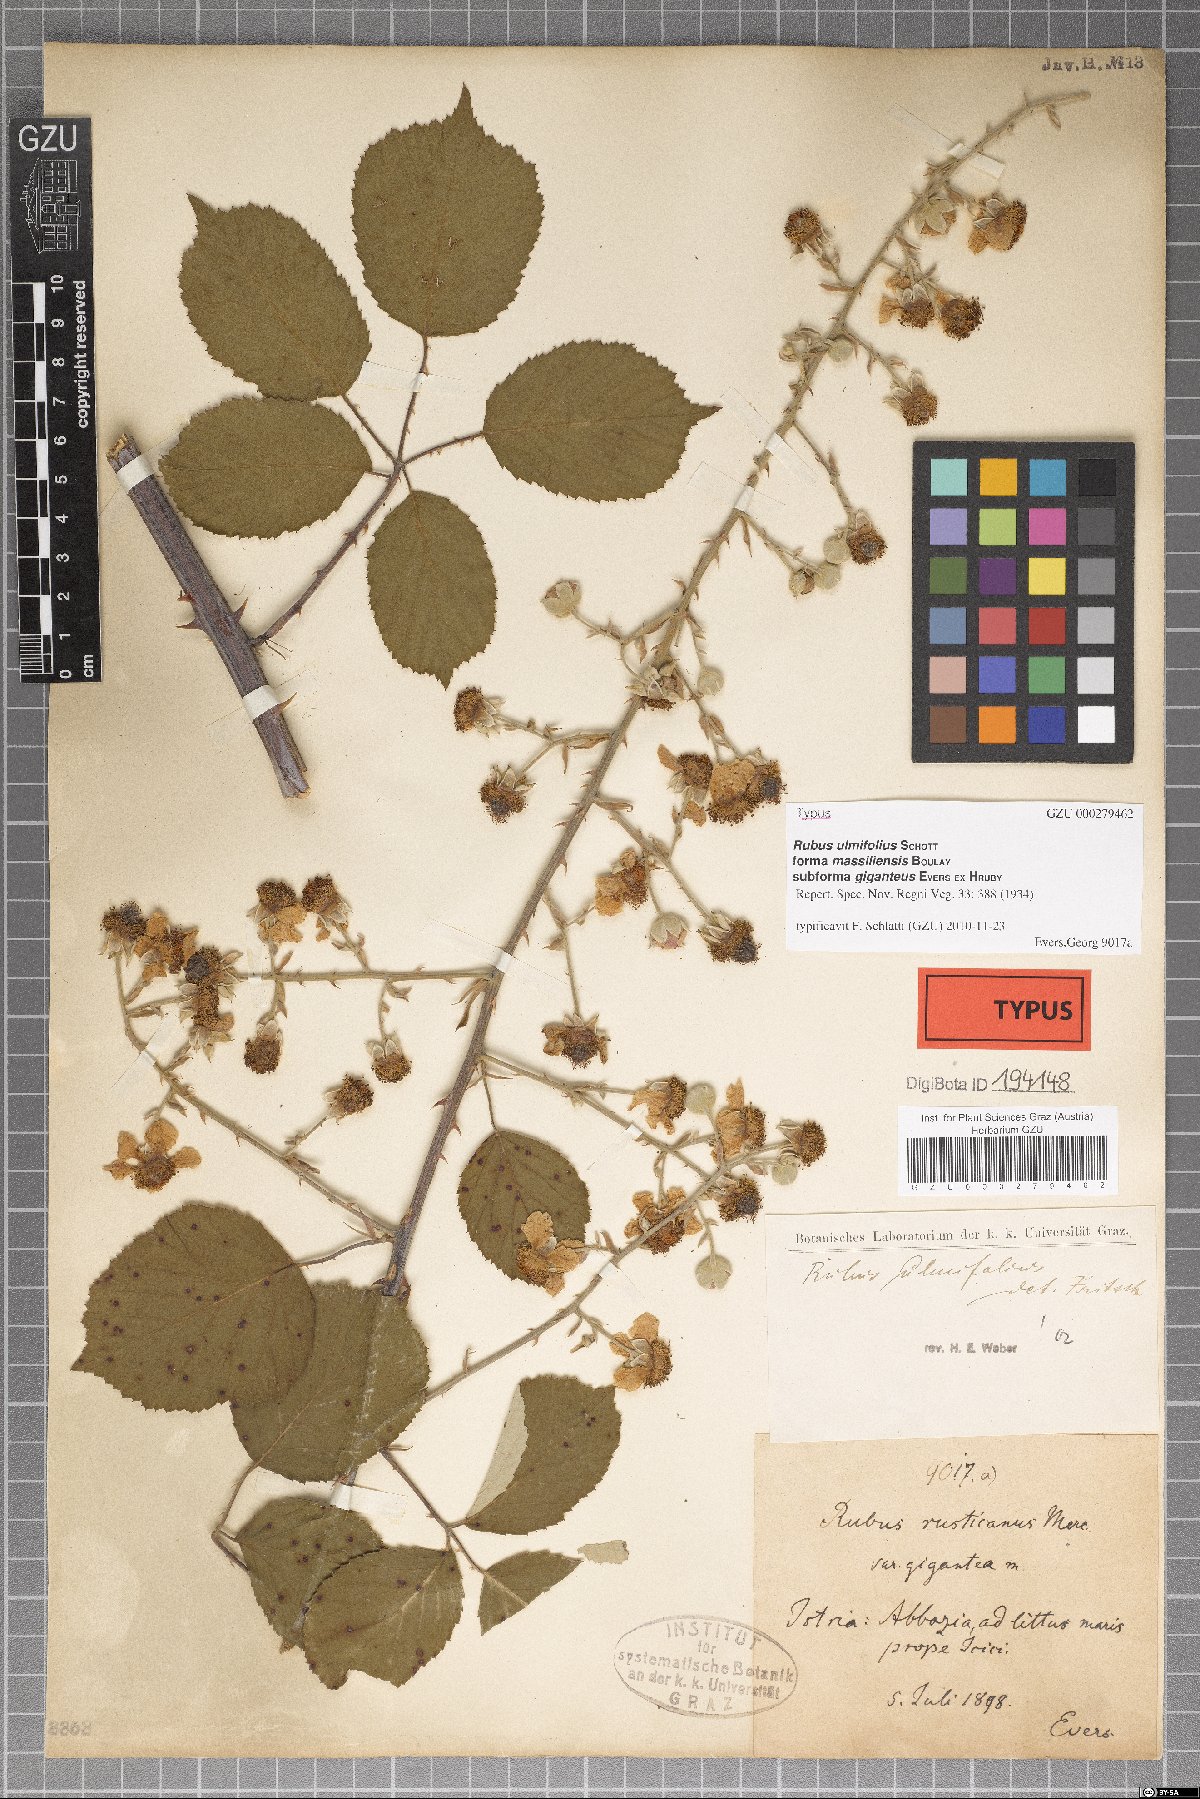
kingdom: Plantae
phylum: Tracheophyta
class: Magnoliopsida
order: Rosales
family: Rosaceae
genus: Rubus
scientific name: Rubus ulmifolius
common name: Elmleaf blackberry
